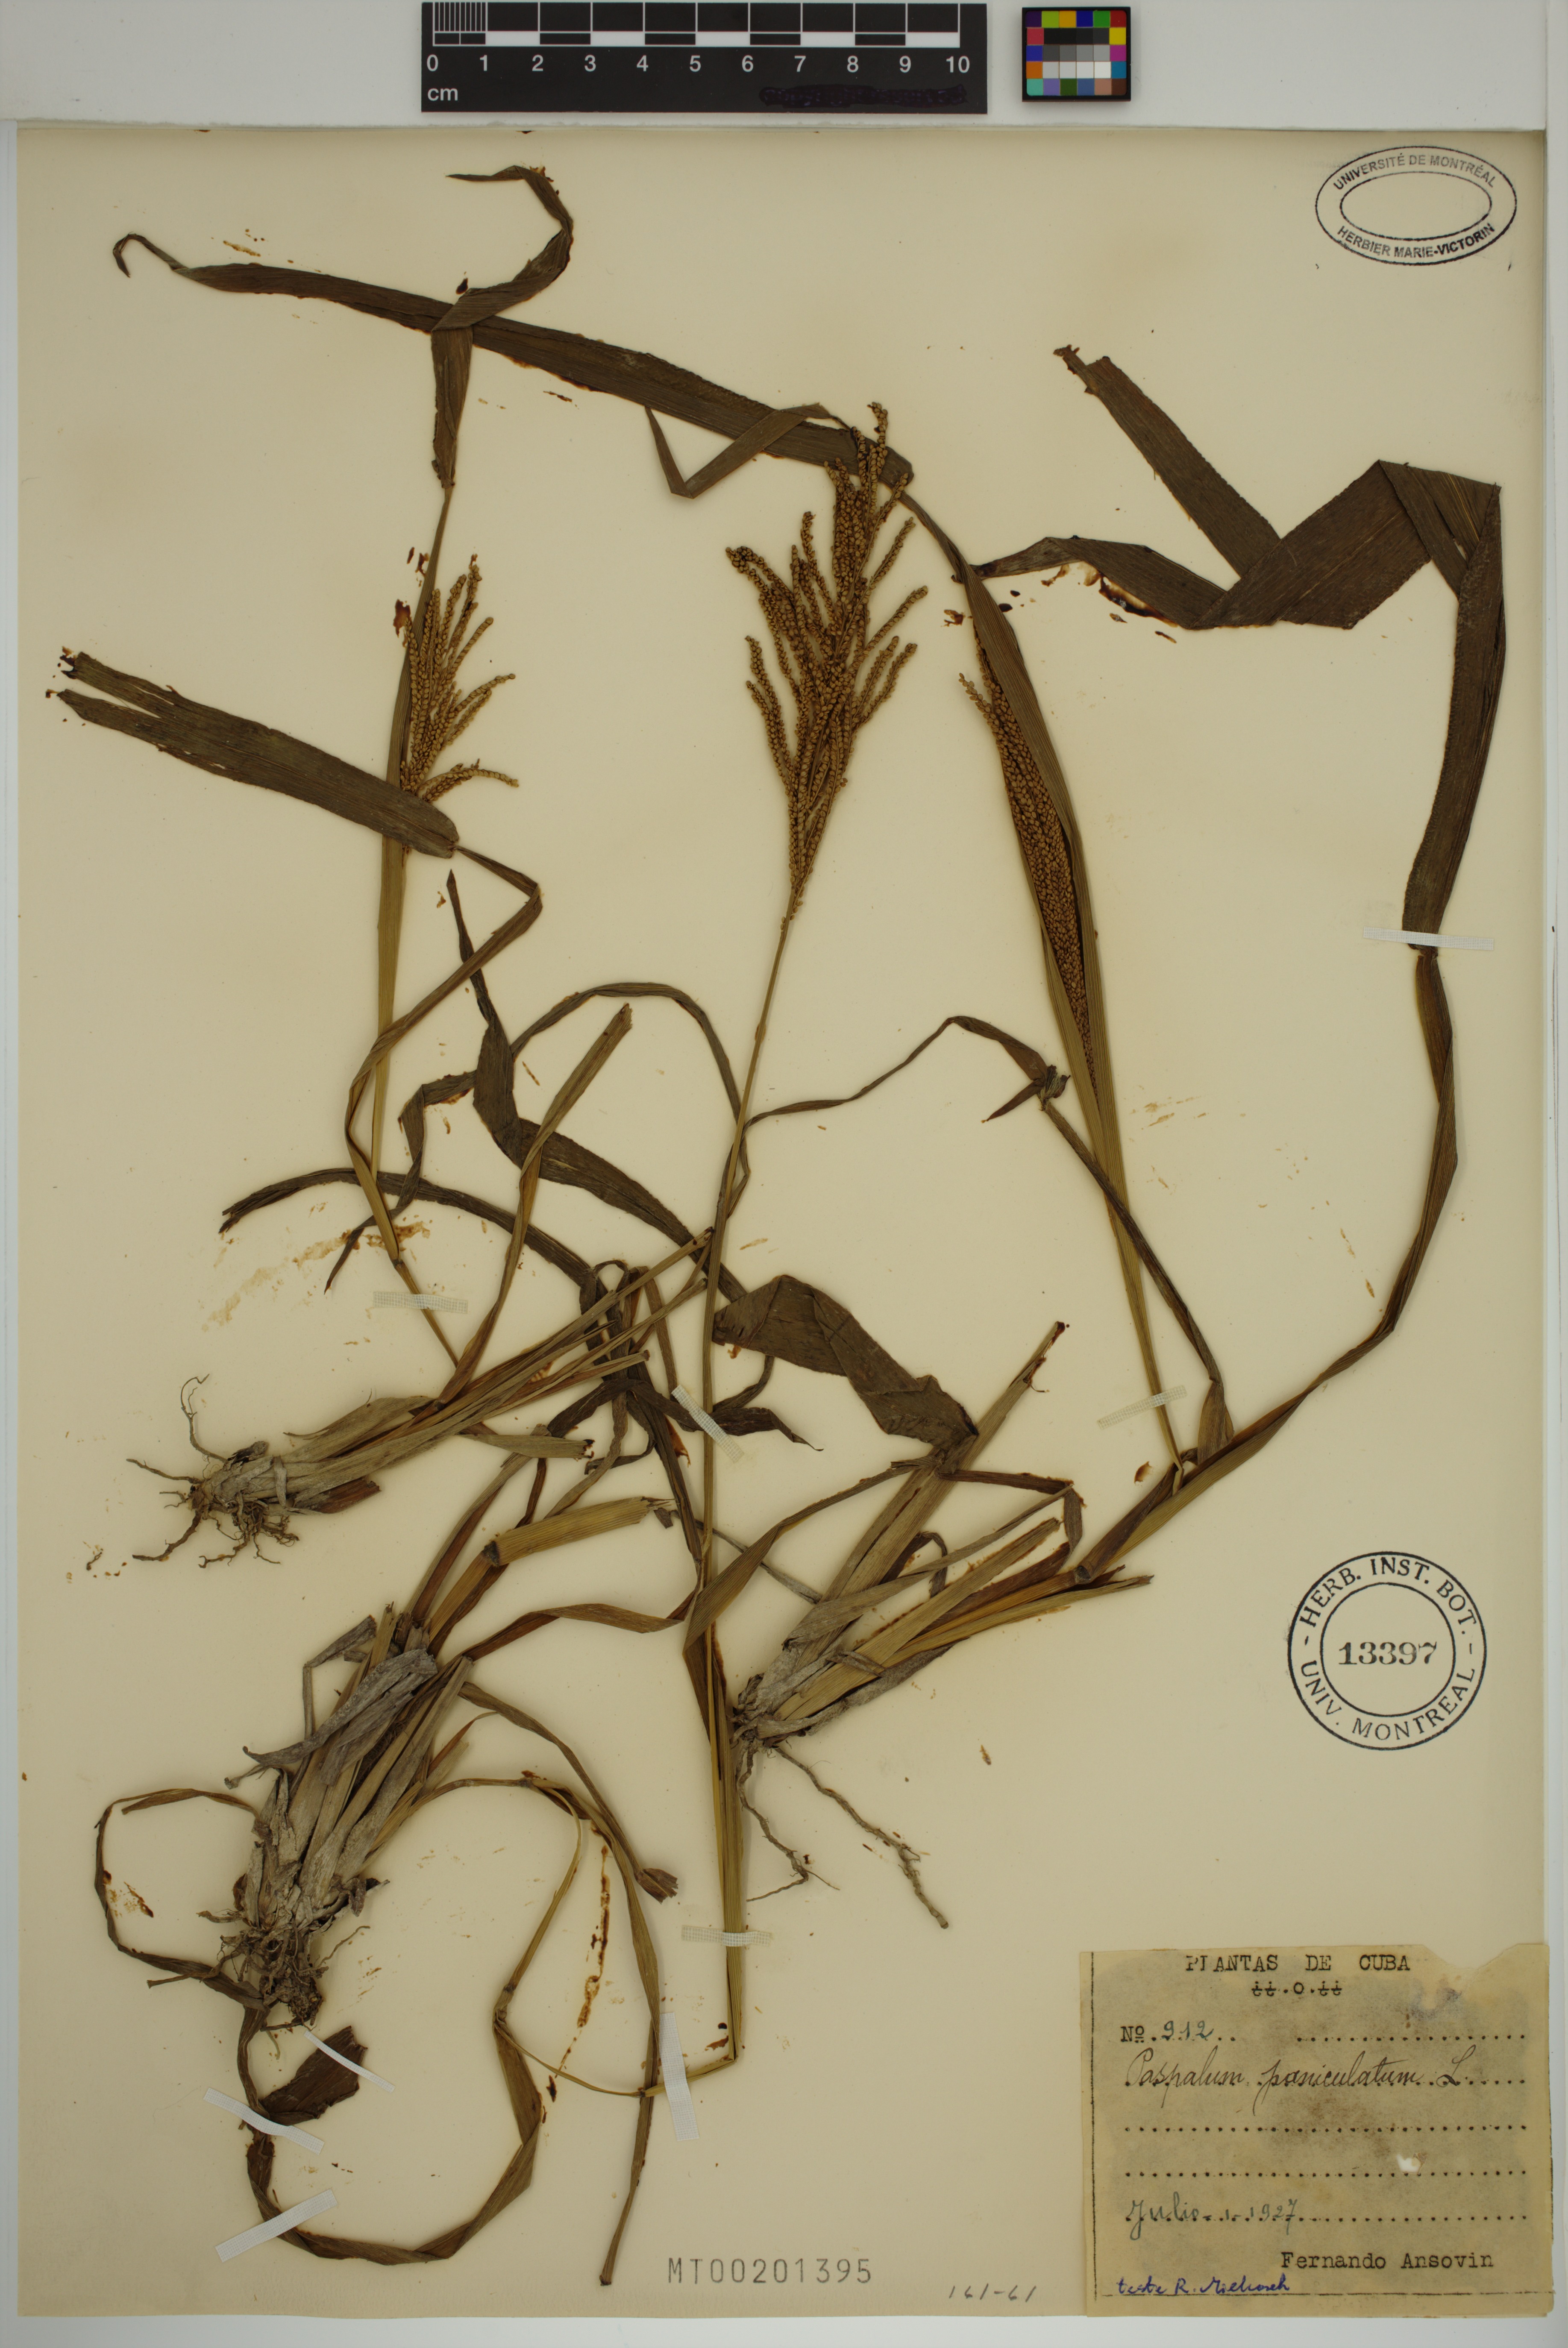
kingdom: Plantae
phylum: Tracheophyta
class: Liliopsida
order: Poales
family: Poaceae
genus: Paspalum
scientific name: Paspalum paniculatum
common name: Arrocillo
